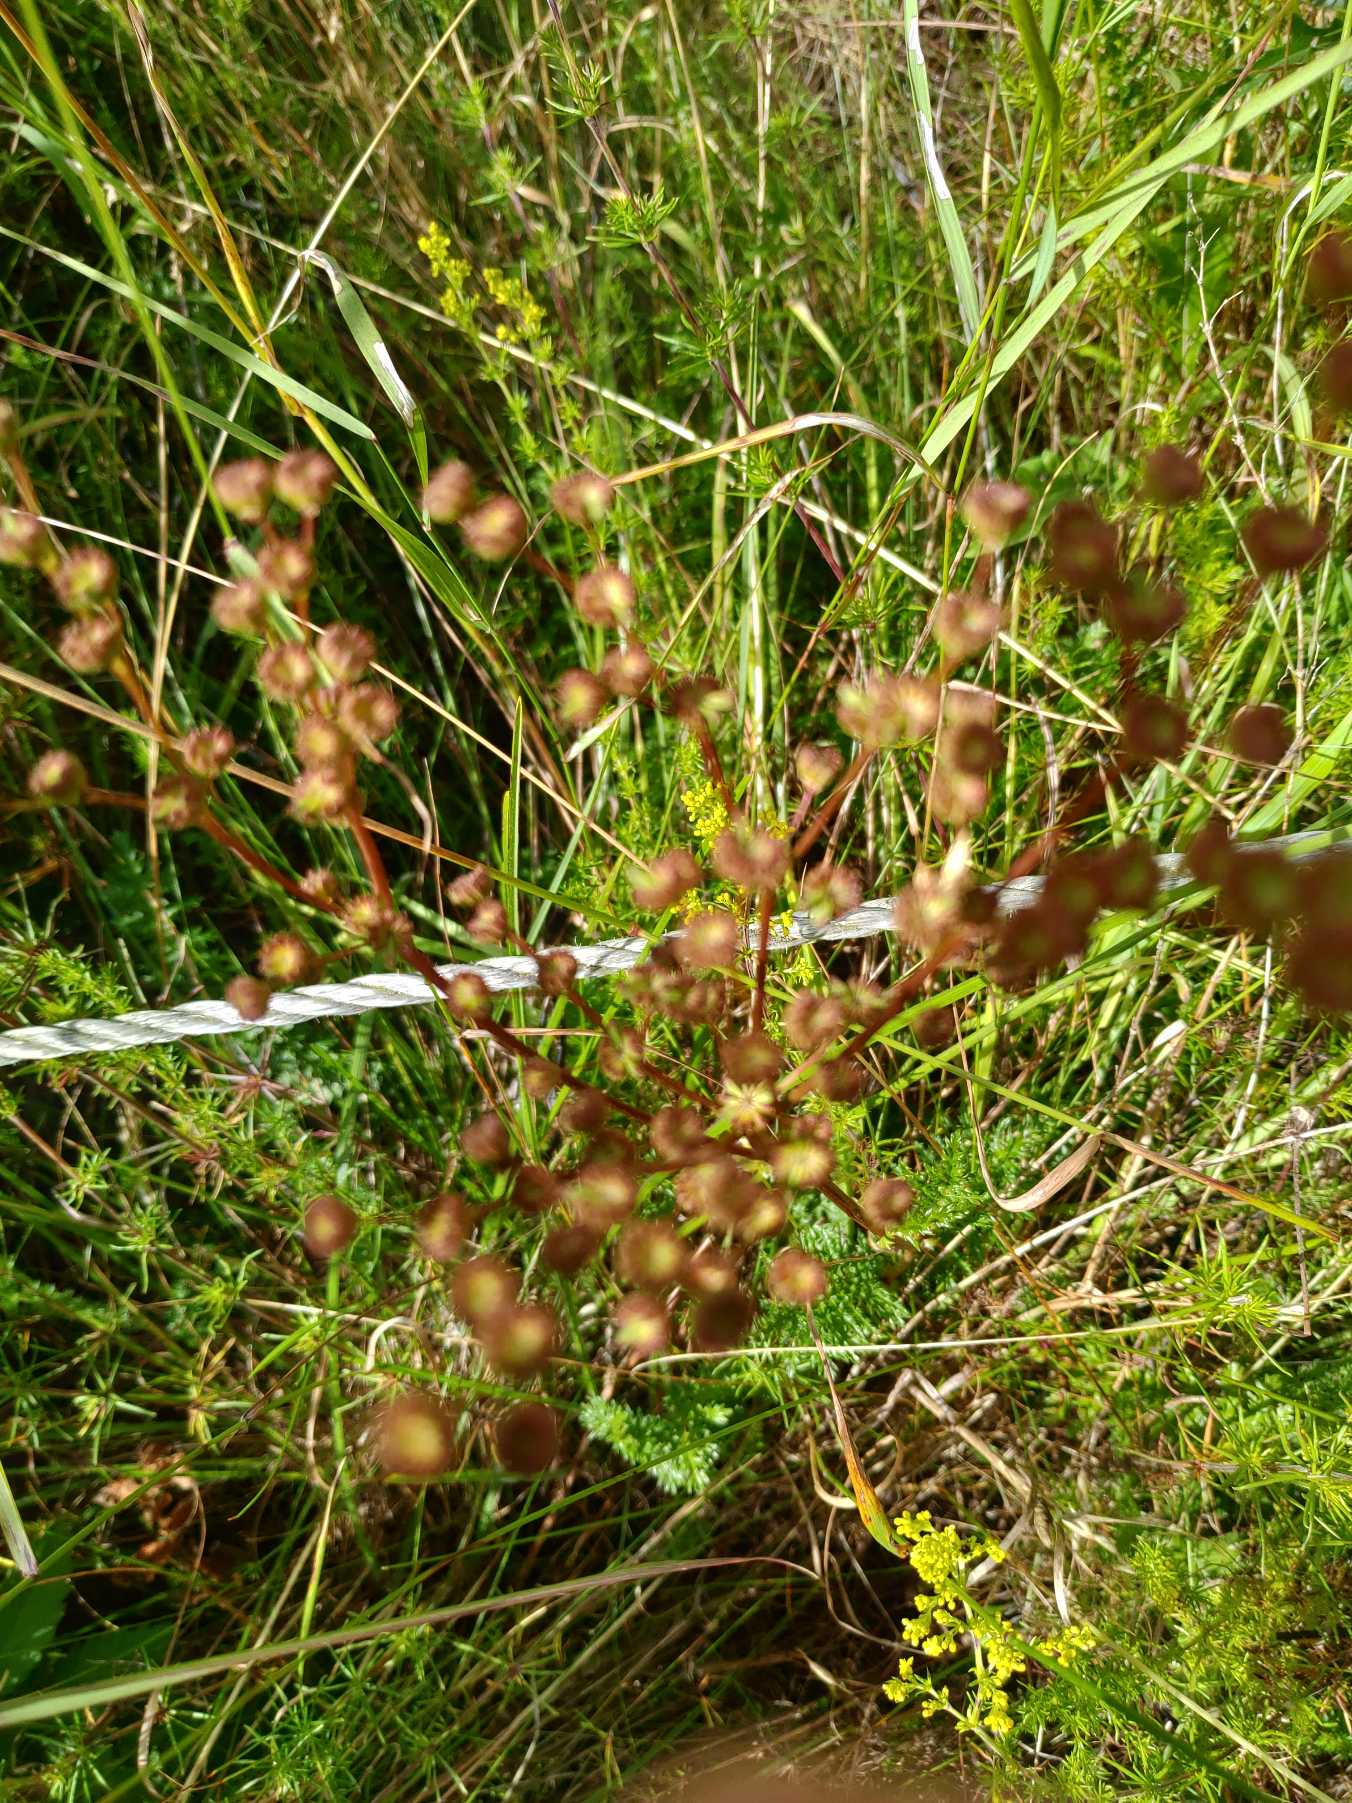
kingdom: Plantae
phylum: Tracheophyta
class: Magnoliopsida
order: Rosales
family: Rosaceae
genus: Filipendula
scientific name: Filipendula vulgaris
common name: Knoldet mjødurt
